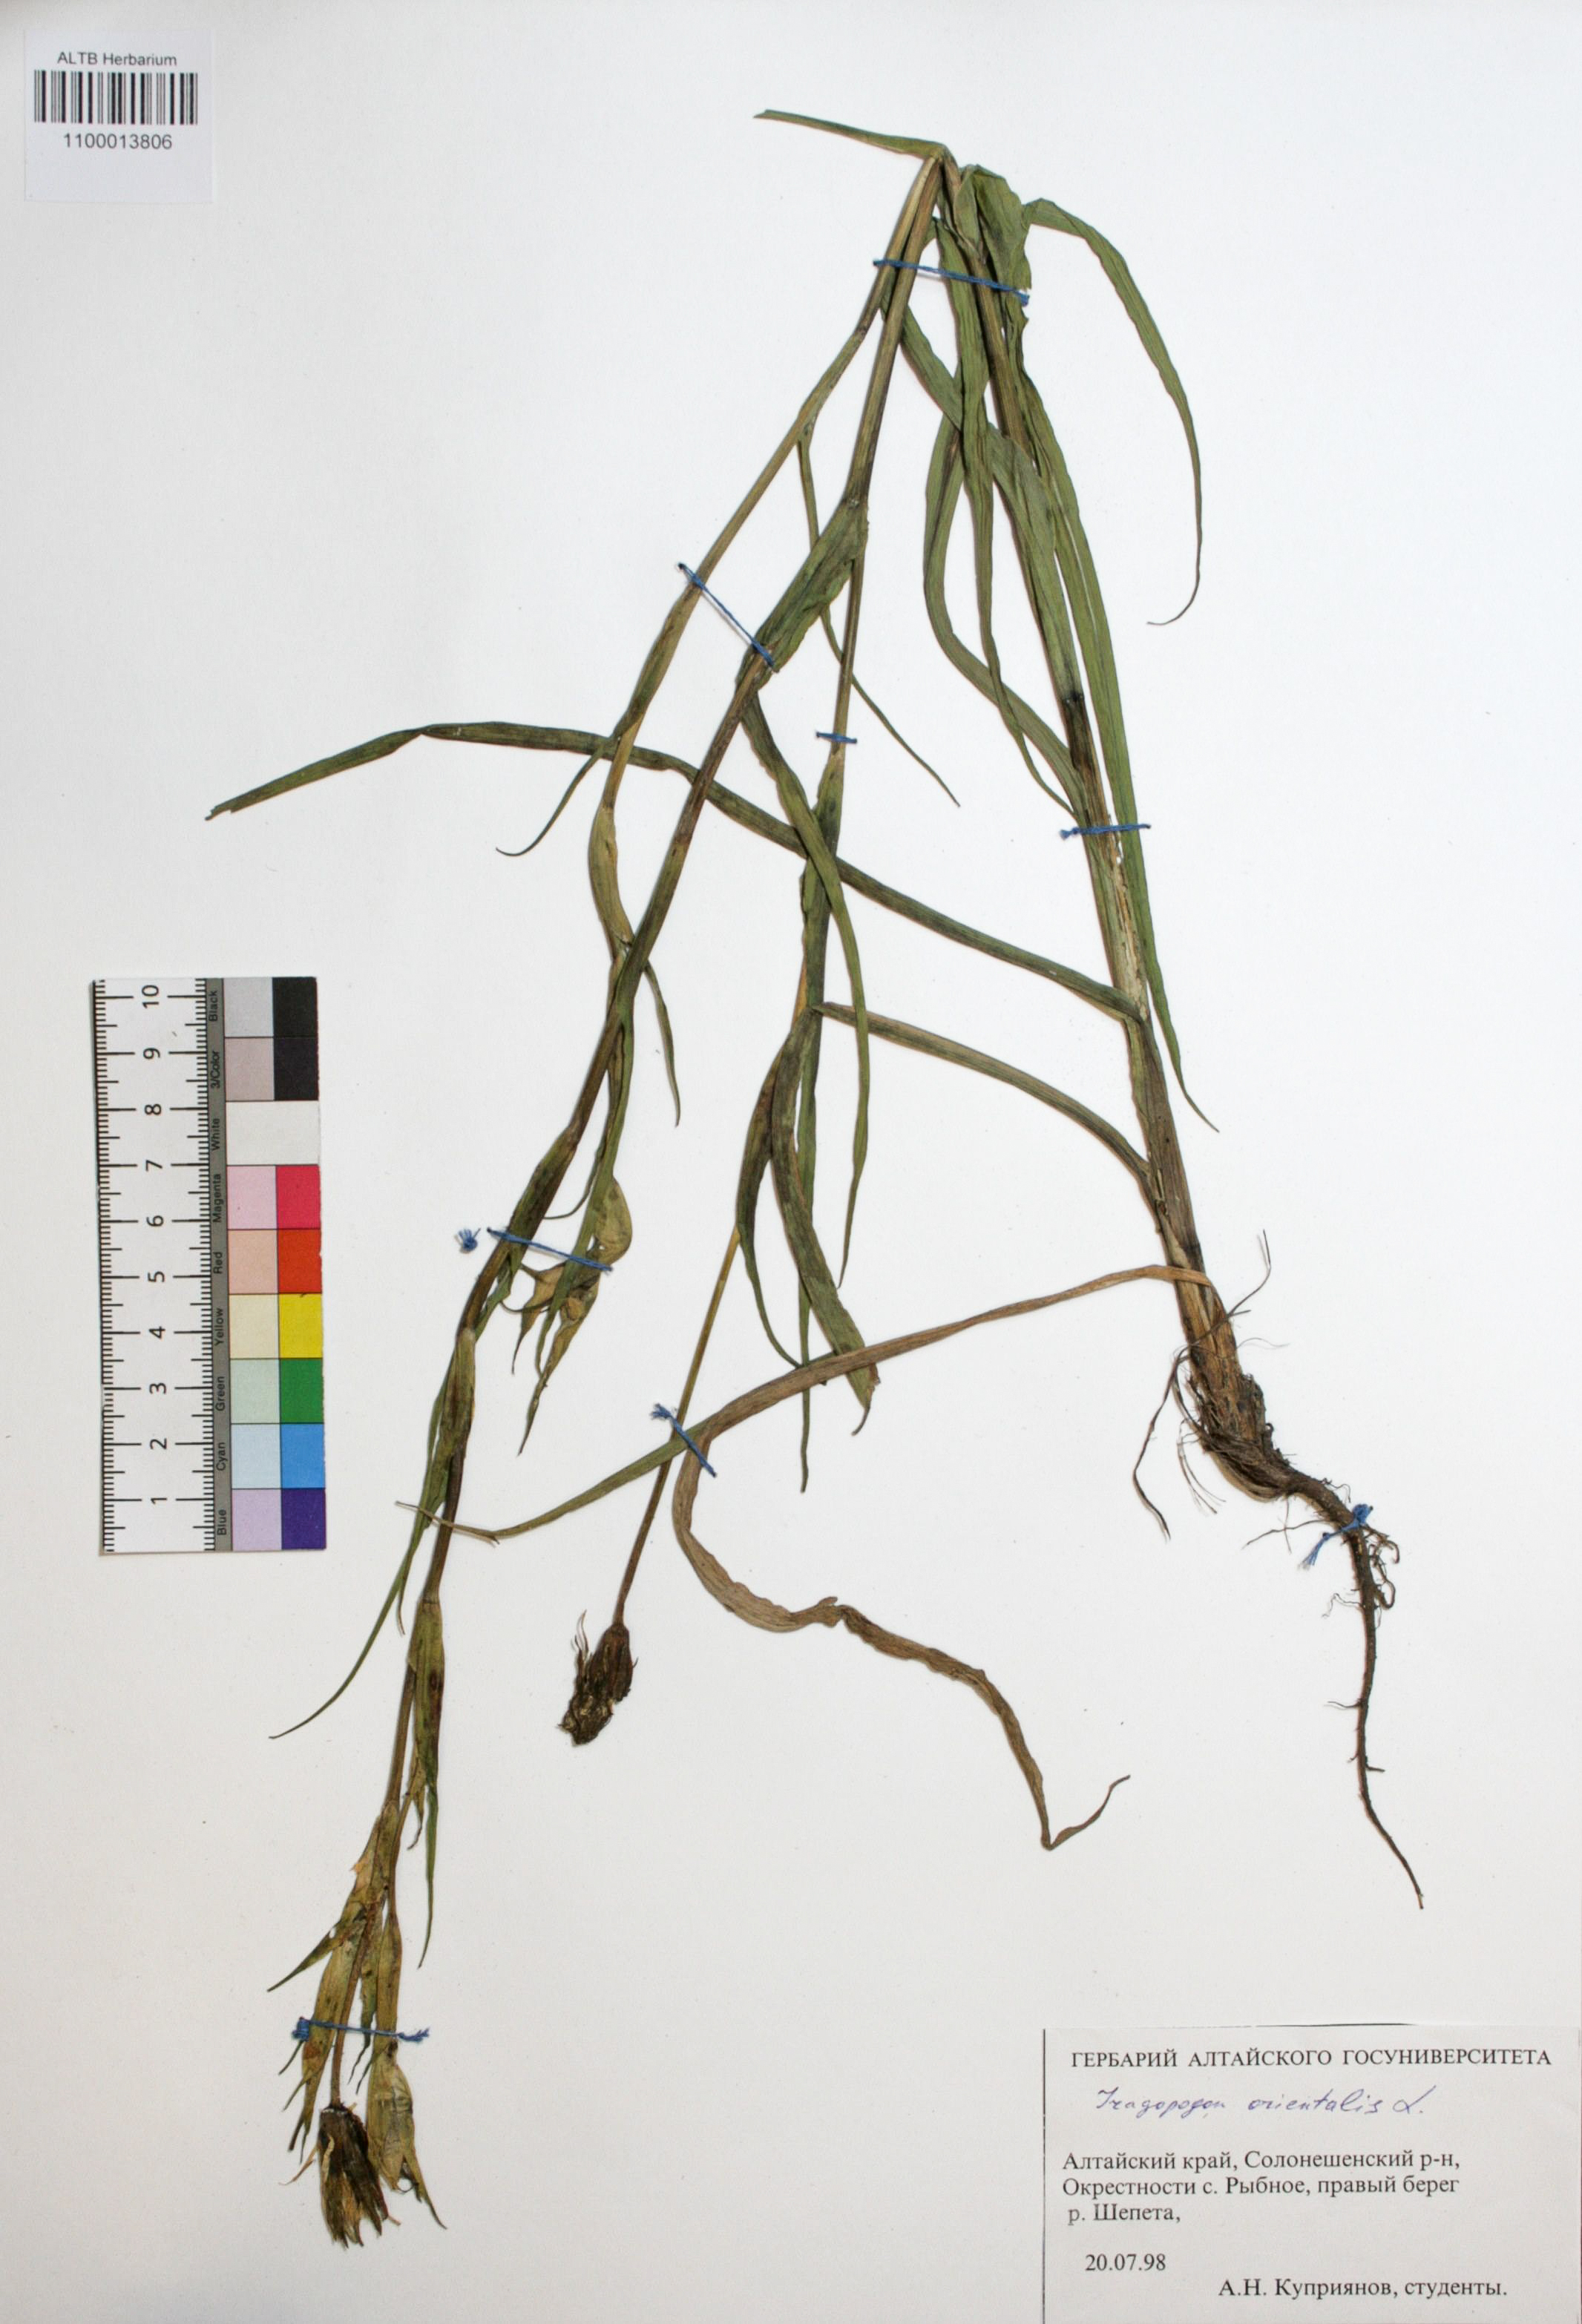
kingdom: Plantae
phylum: Tracheophyta
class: Magnoliopsida
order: Asterales
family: Asteraceae
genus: Tragopogon
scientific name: Tragopogon orientalis
